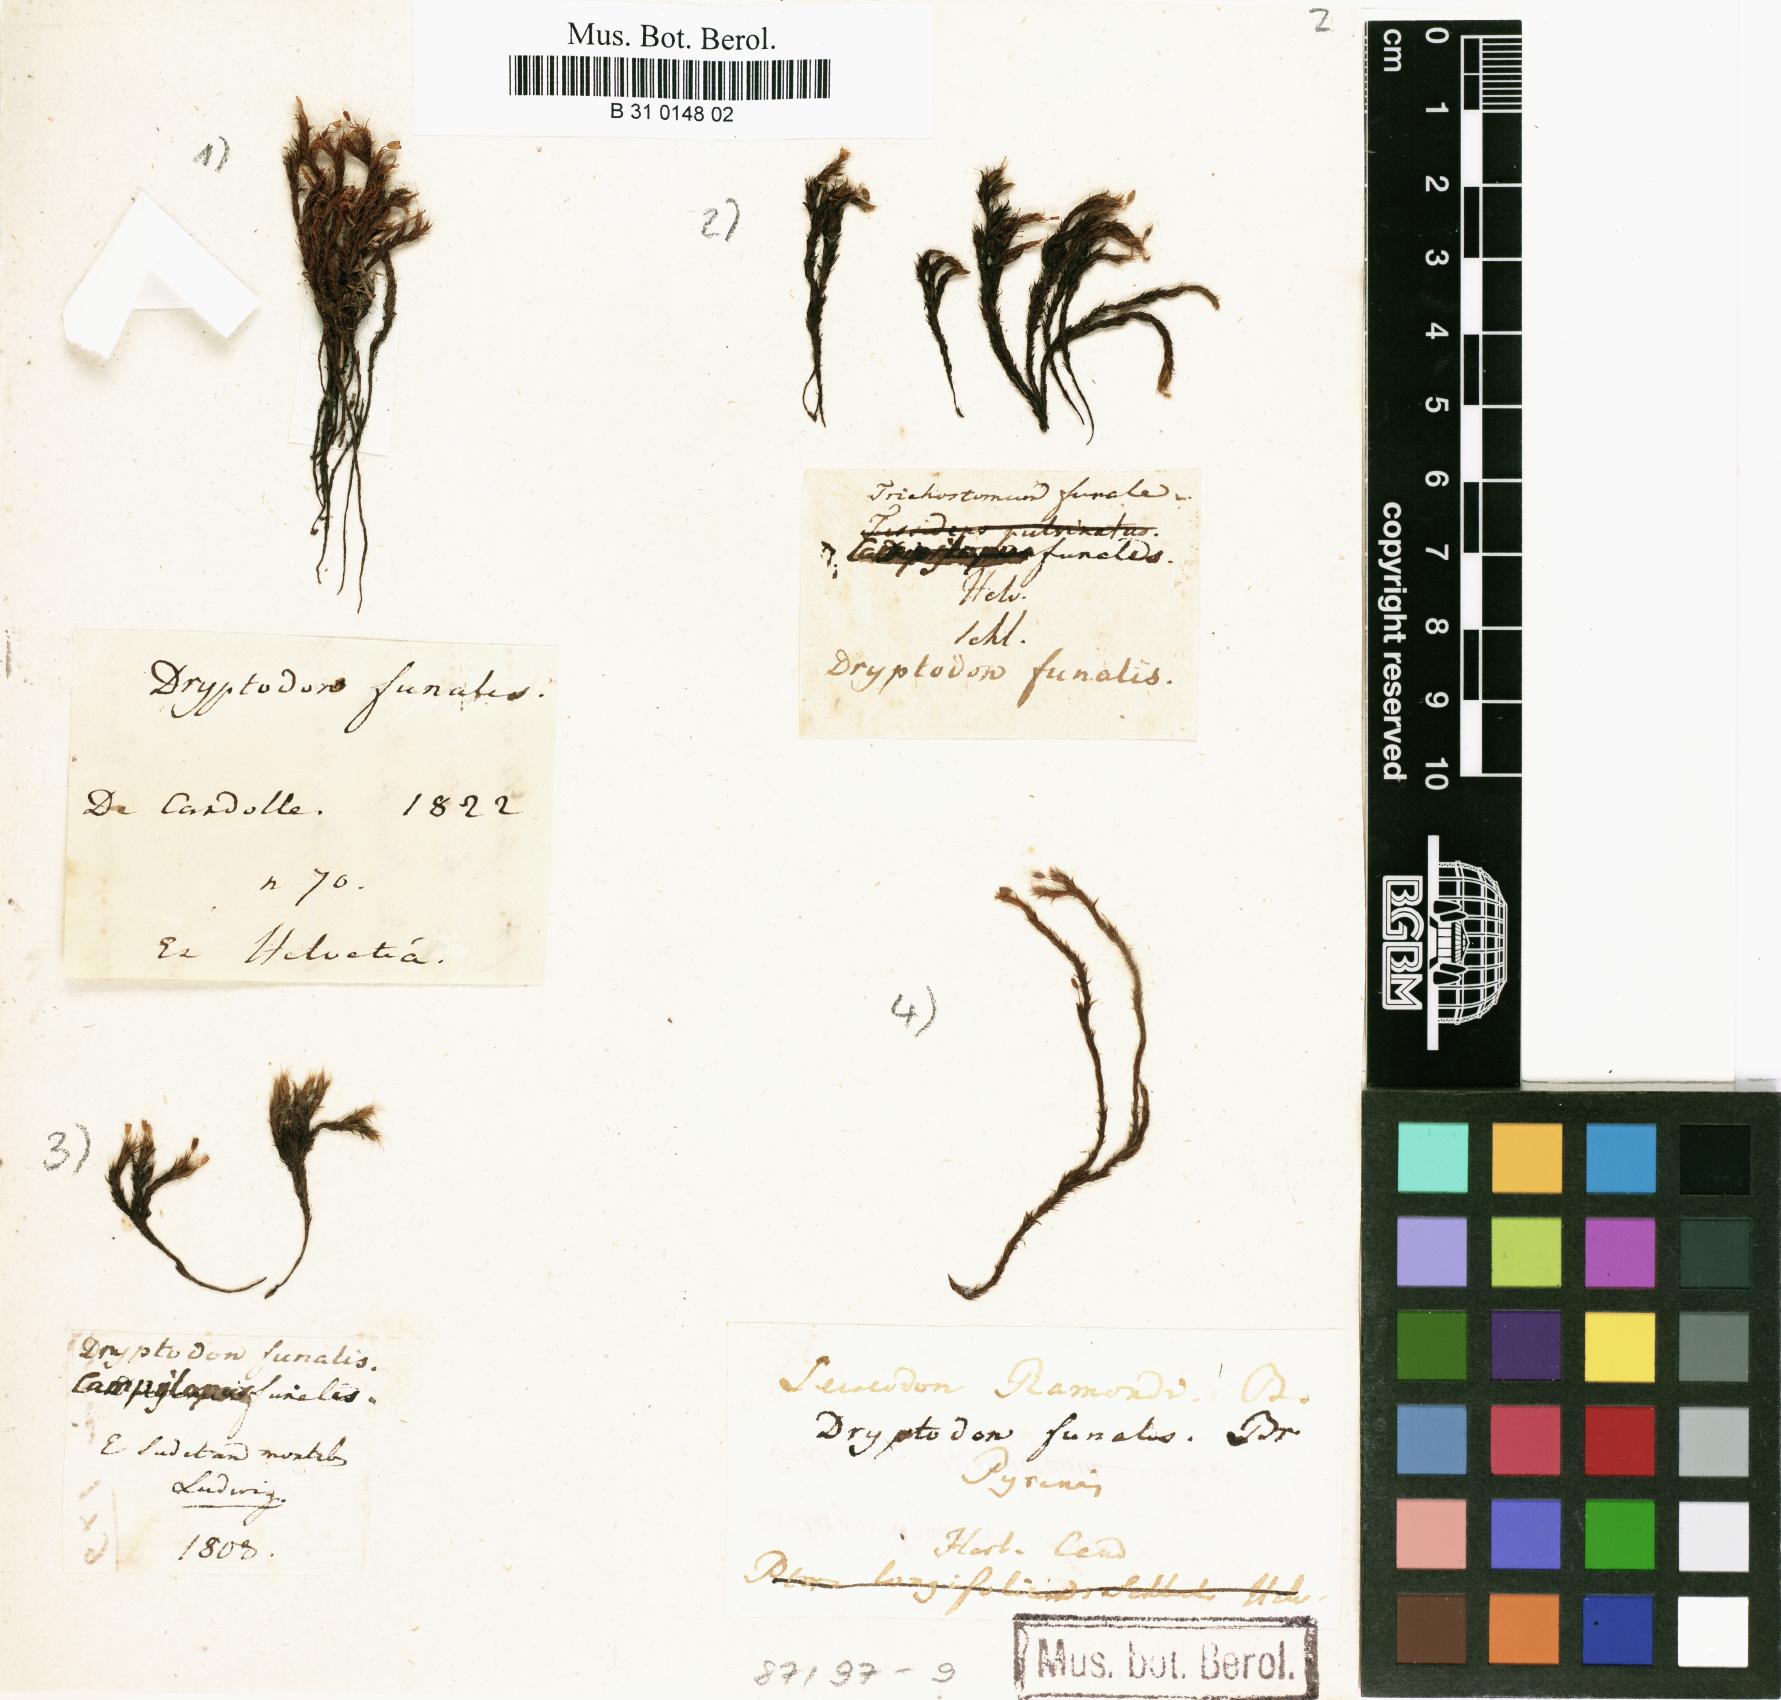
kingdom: Plantae
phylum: Bryophyta
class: Bryopsida
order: Grimmiales
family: Grimmiaceae
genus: Grimmia
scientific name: Grimmia funalis
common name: String grimmia
